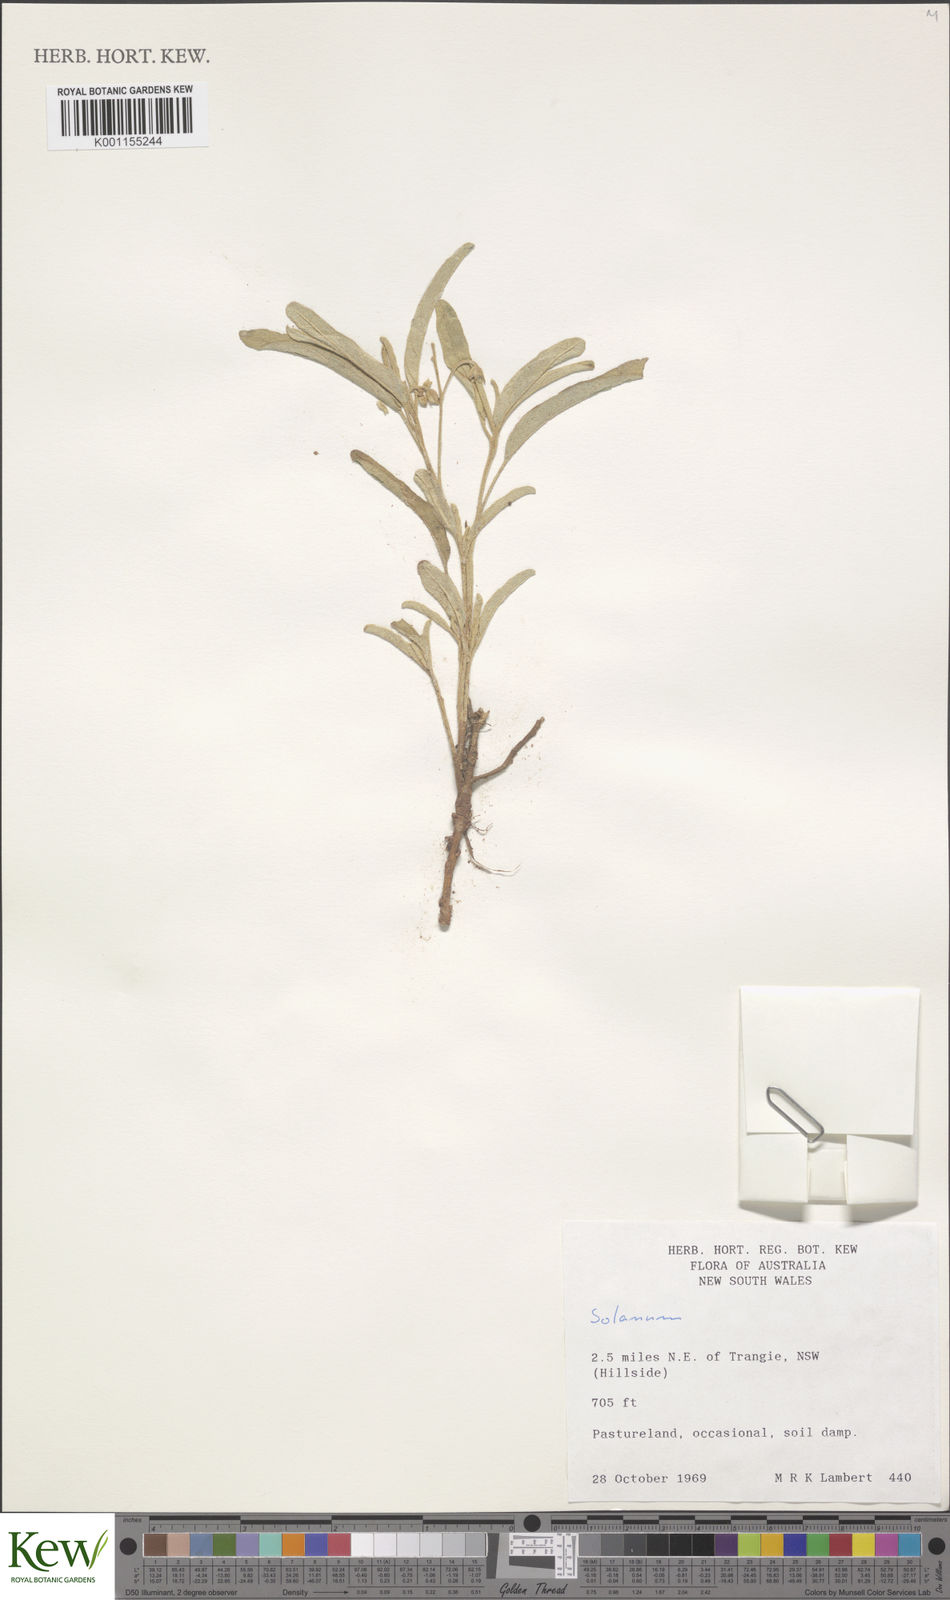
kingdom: Plantae
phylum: Tracheophyta
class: Magnoliopsida
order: Solanales
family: Solanaceae
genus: Solanum
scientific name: Solanum
